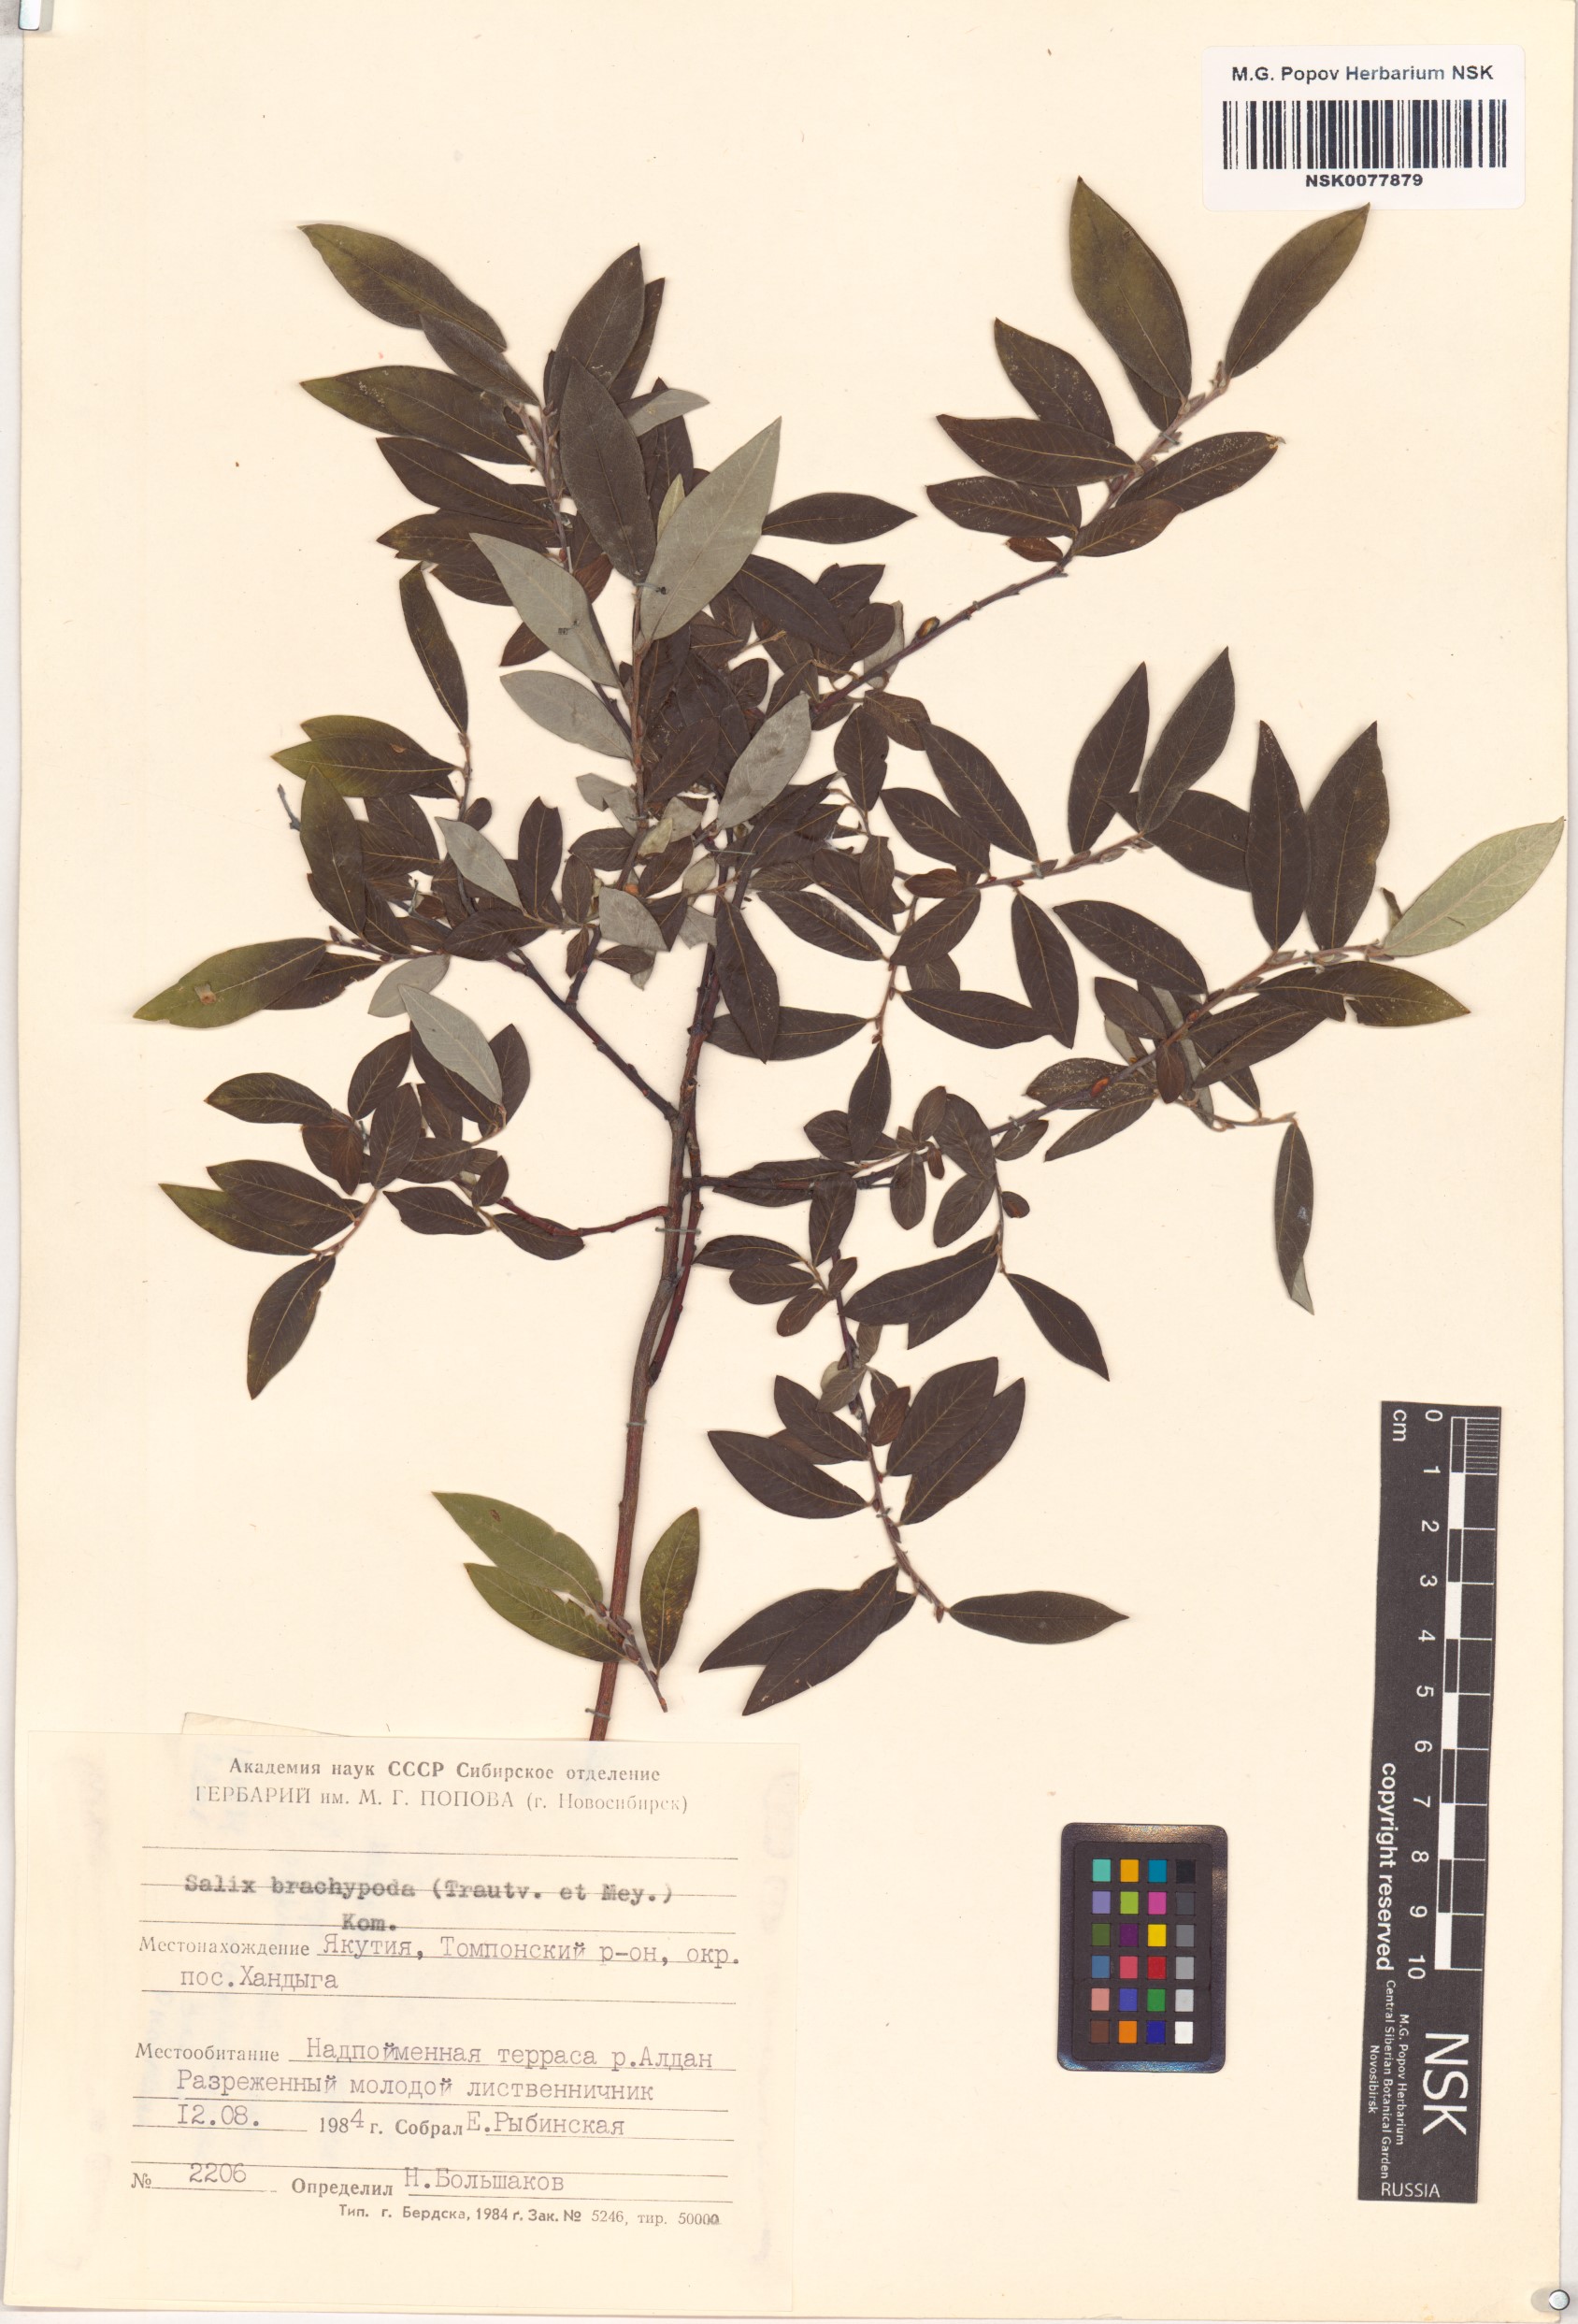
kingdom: Plantae
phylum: Tracheophyta
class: Magnoliopsida
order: Malpighiales
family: Salicaceae
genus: Salix
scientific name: Salix brachypoda
